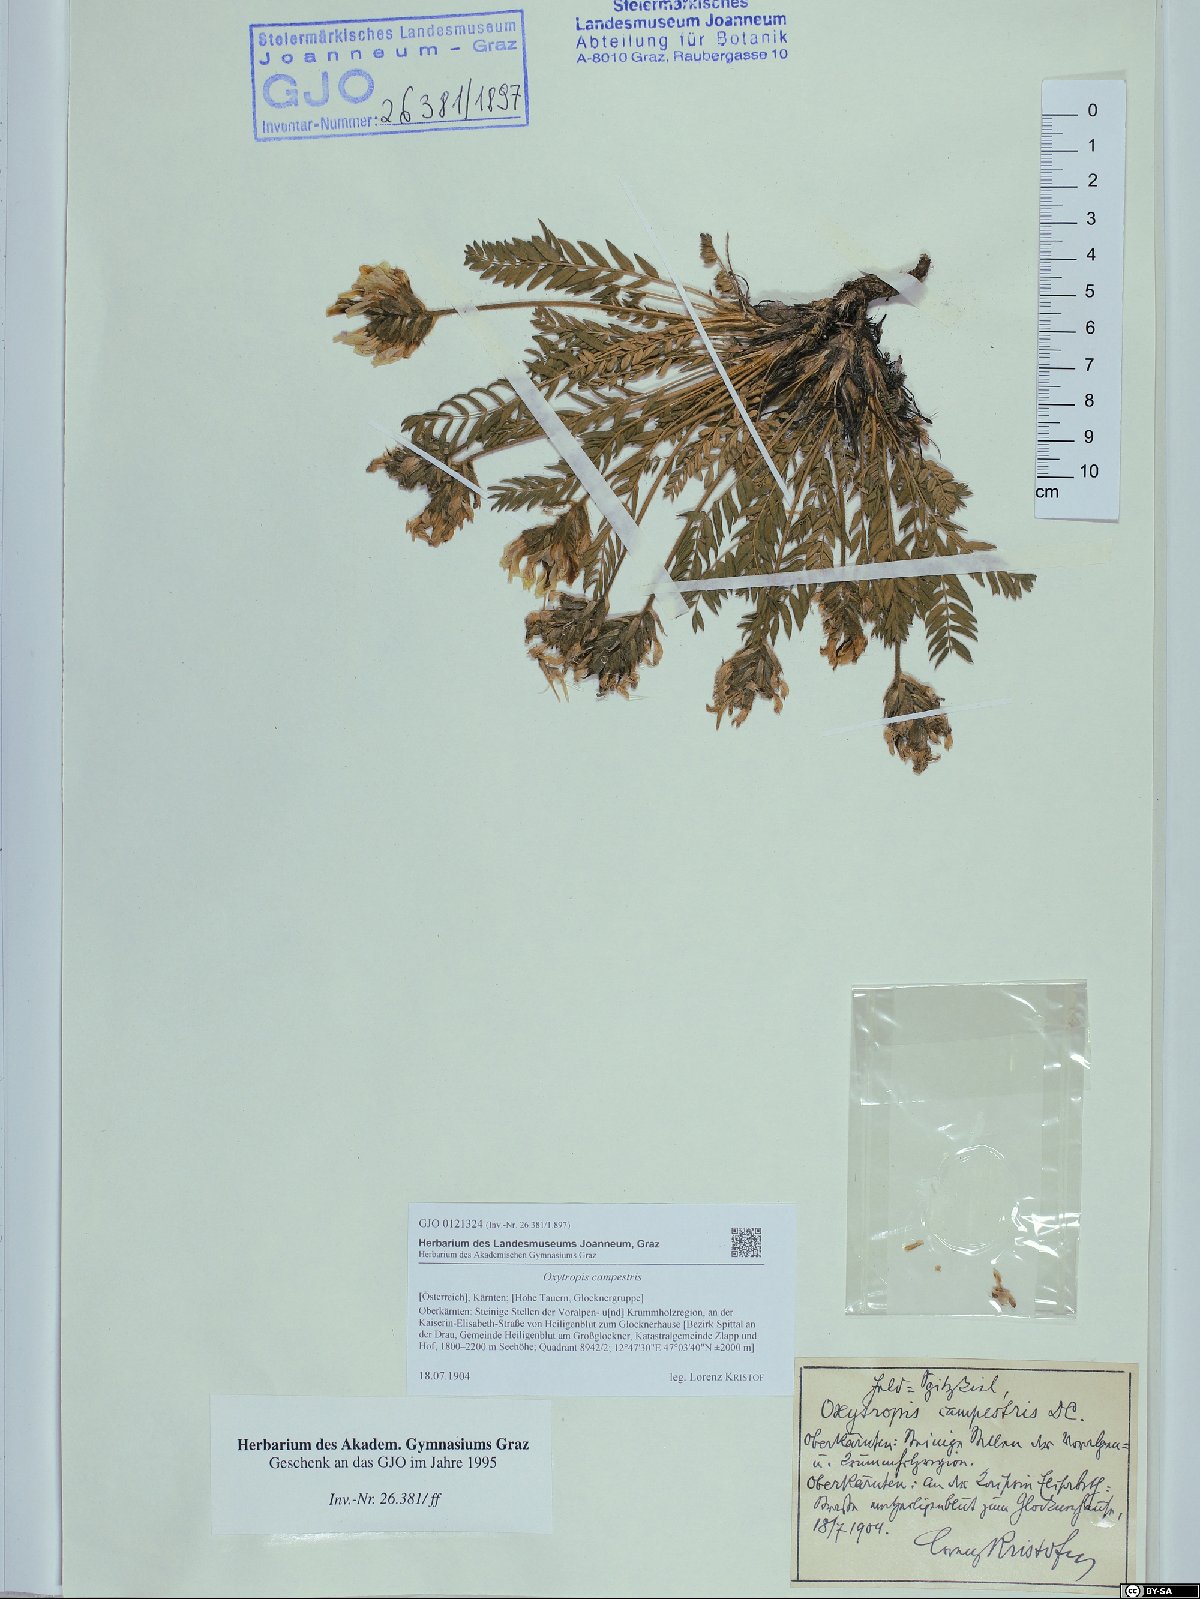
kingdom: Plantae
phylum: Tracheophyta
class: Magnoliopsida
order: Fabales
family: Fabaceae
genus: Oxytropis
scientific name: Oxytropis campestris
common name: Field locoweed
